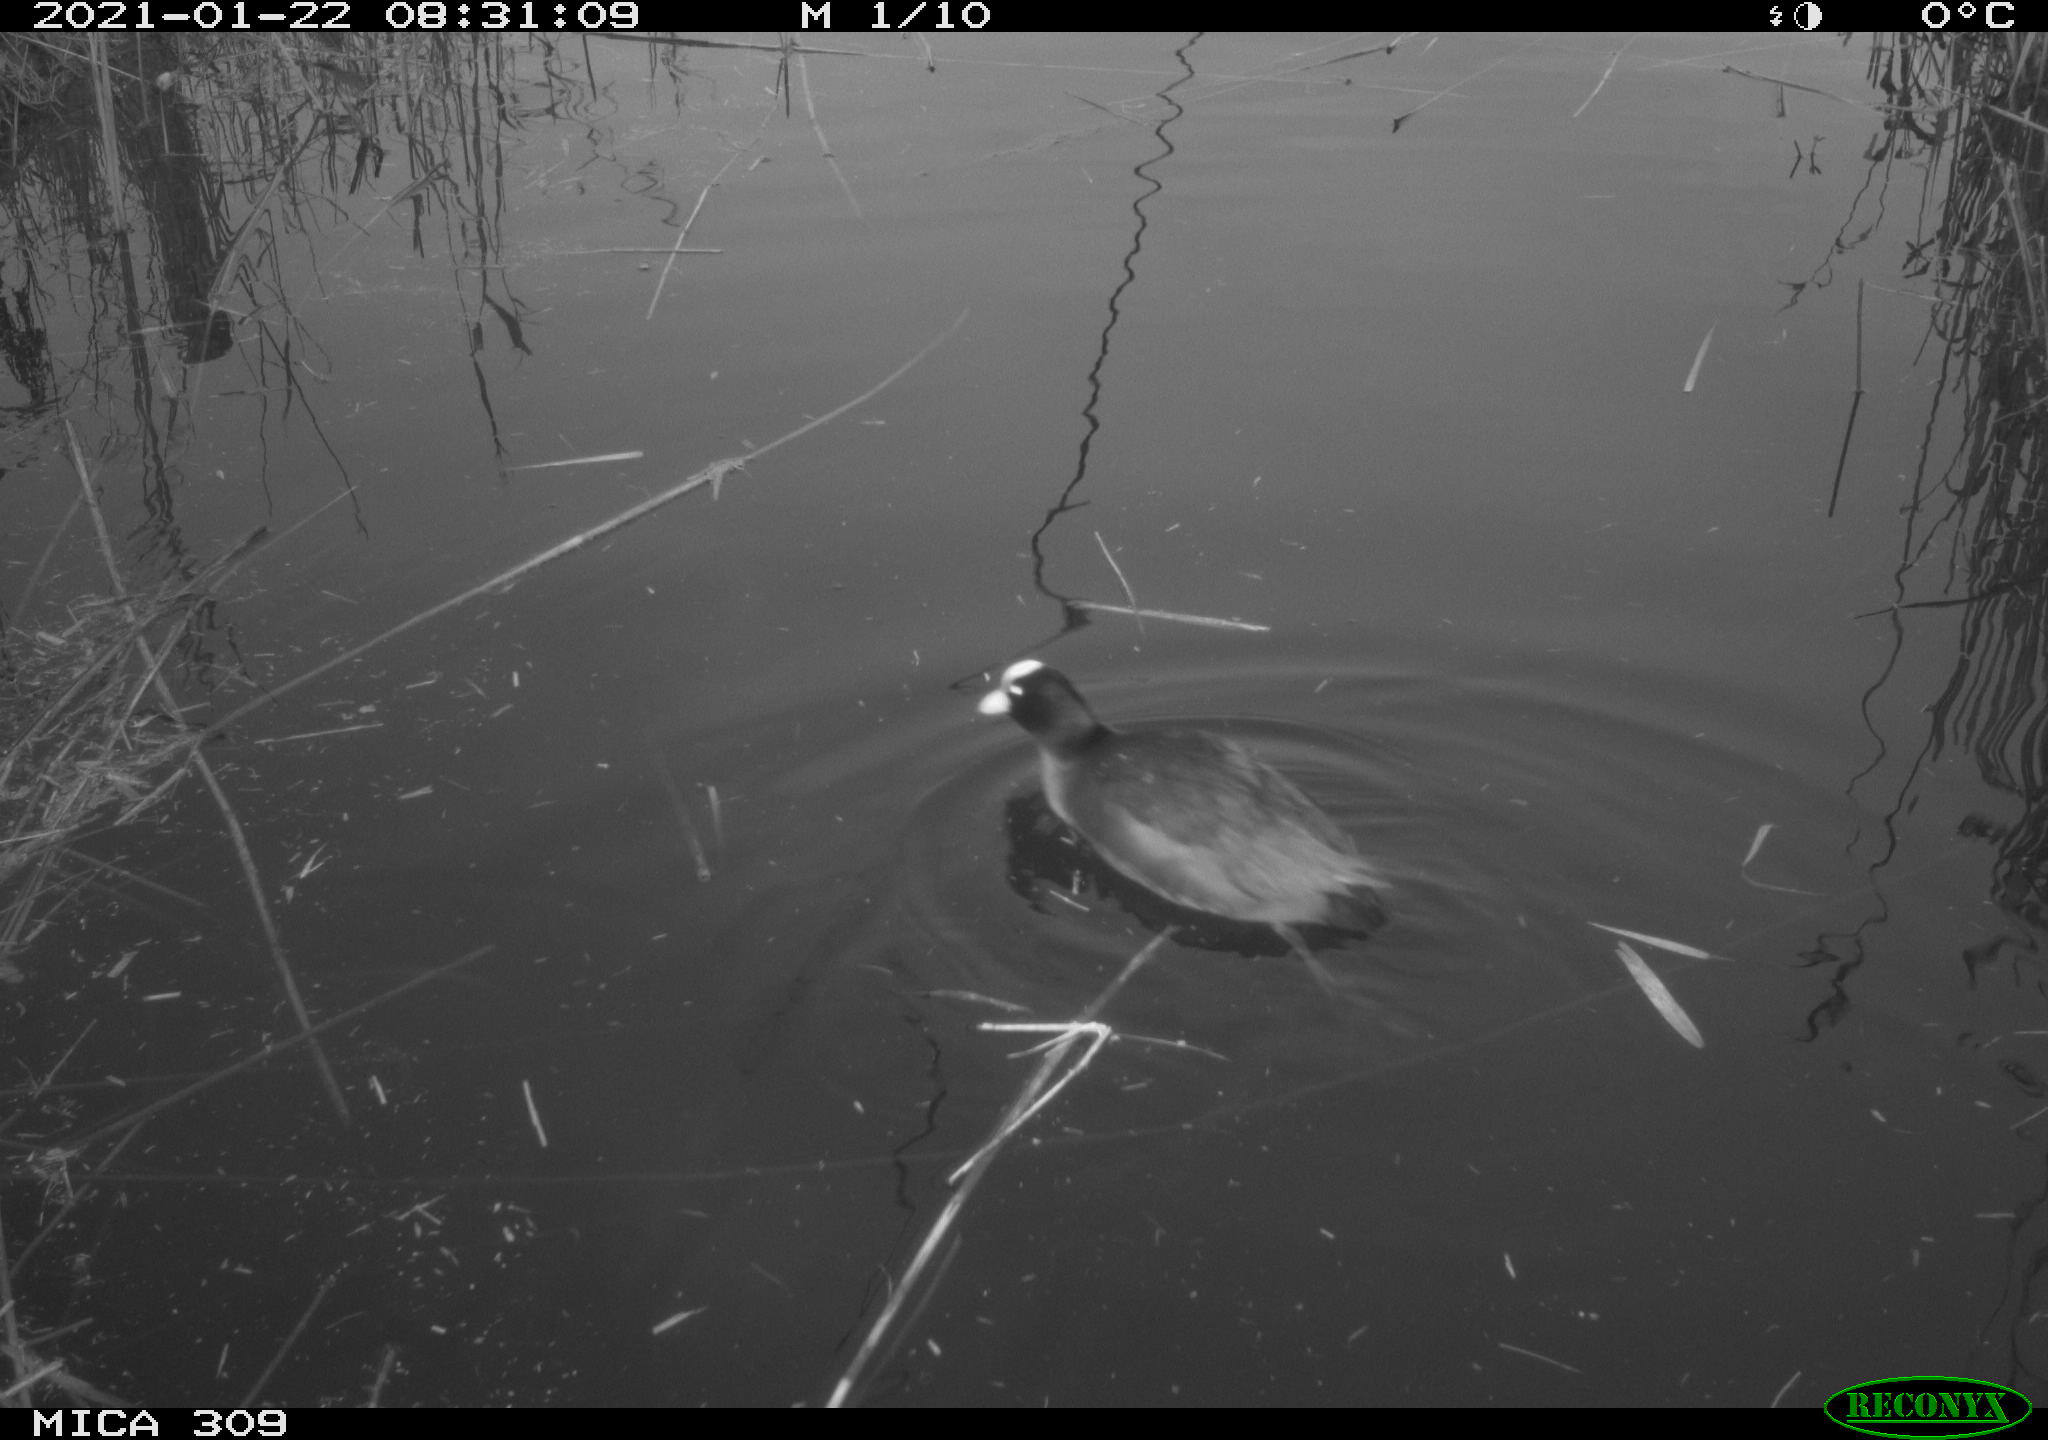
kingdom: Animalia
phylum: Chordata
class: Aves
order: Gruiformes
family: Rallidae
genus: Fulica
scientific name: Fulica atra
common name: Eurasian coot
